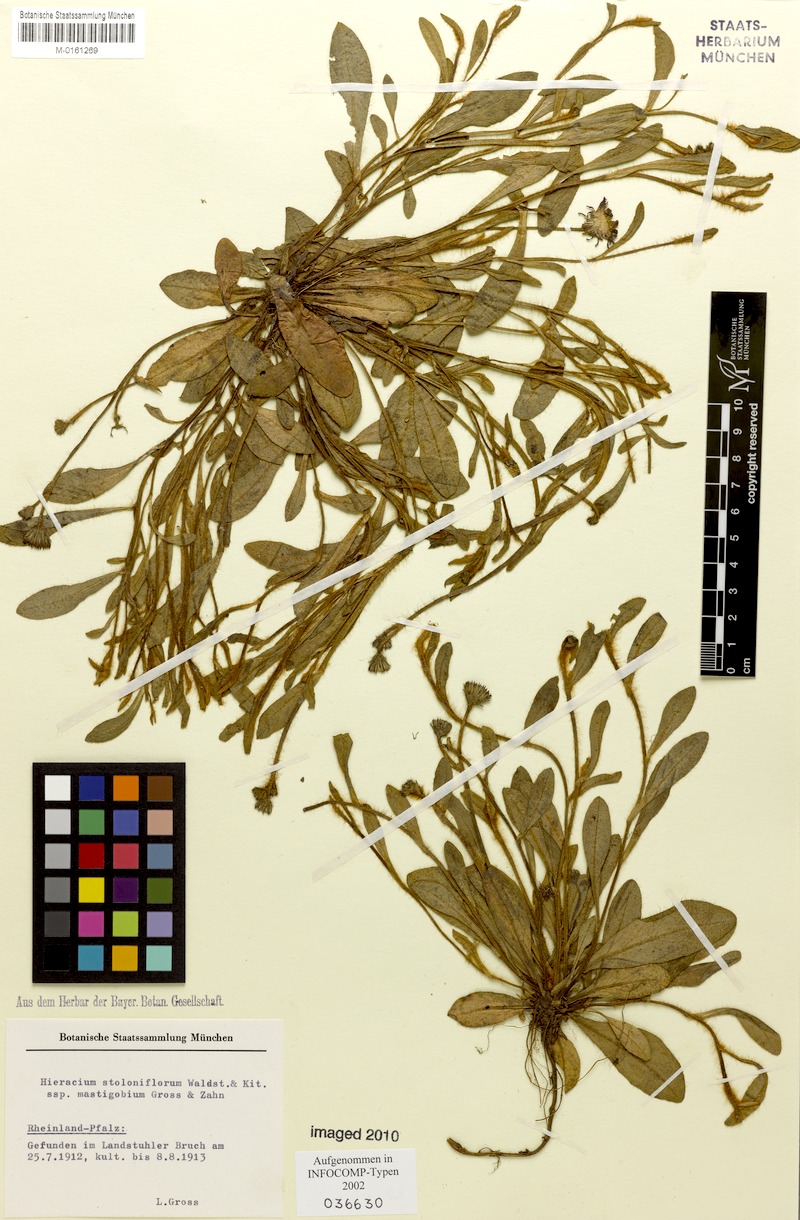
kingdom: Plantae
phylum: Tracheophyta
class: Magnoliopsida
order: Asterales
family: Asteraceae
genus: Pilosella
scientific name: Pilosella stoloniflora
